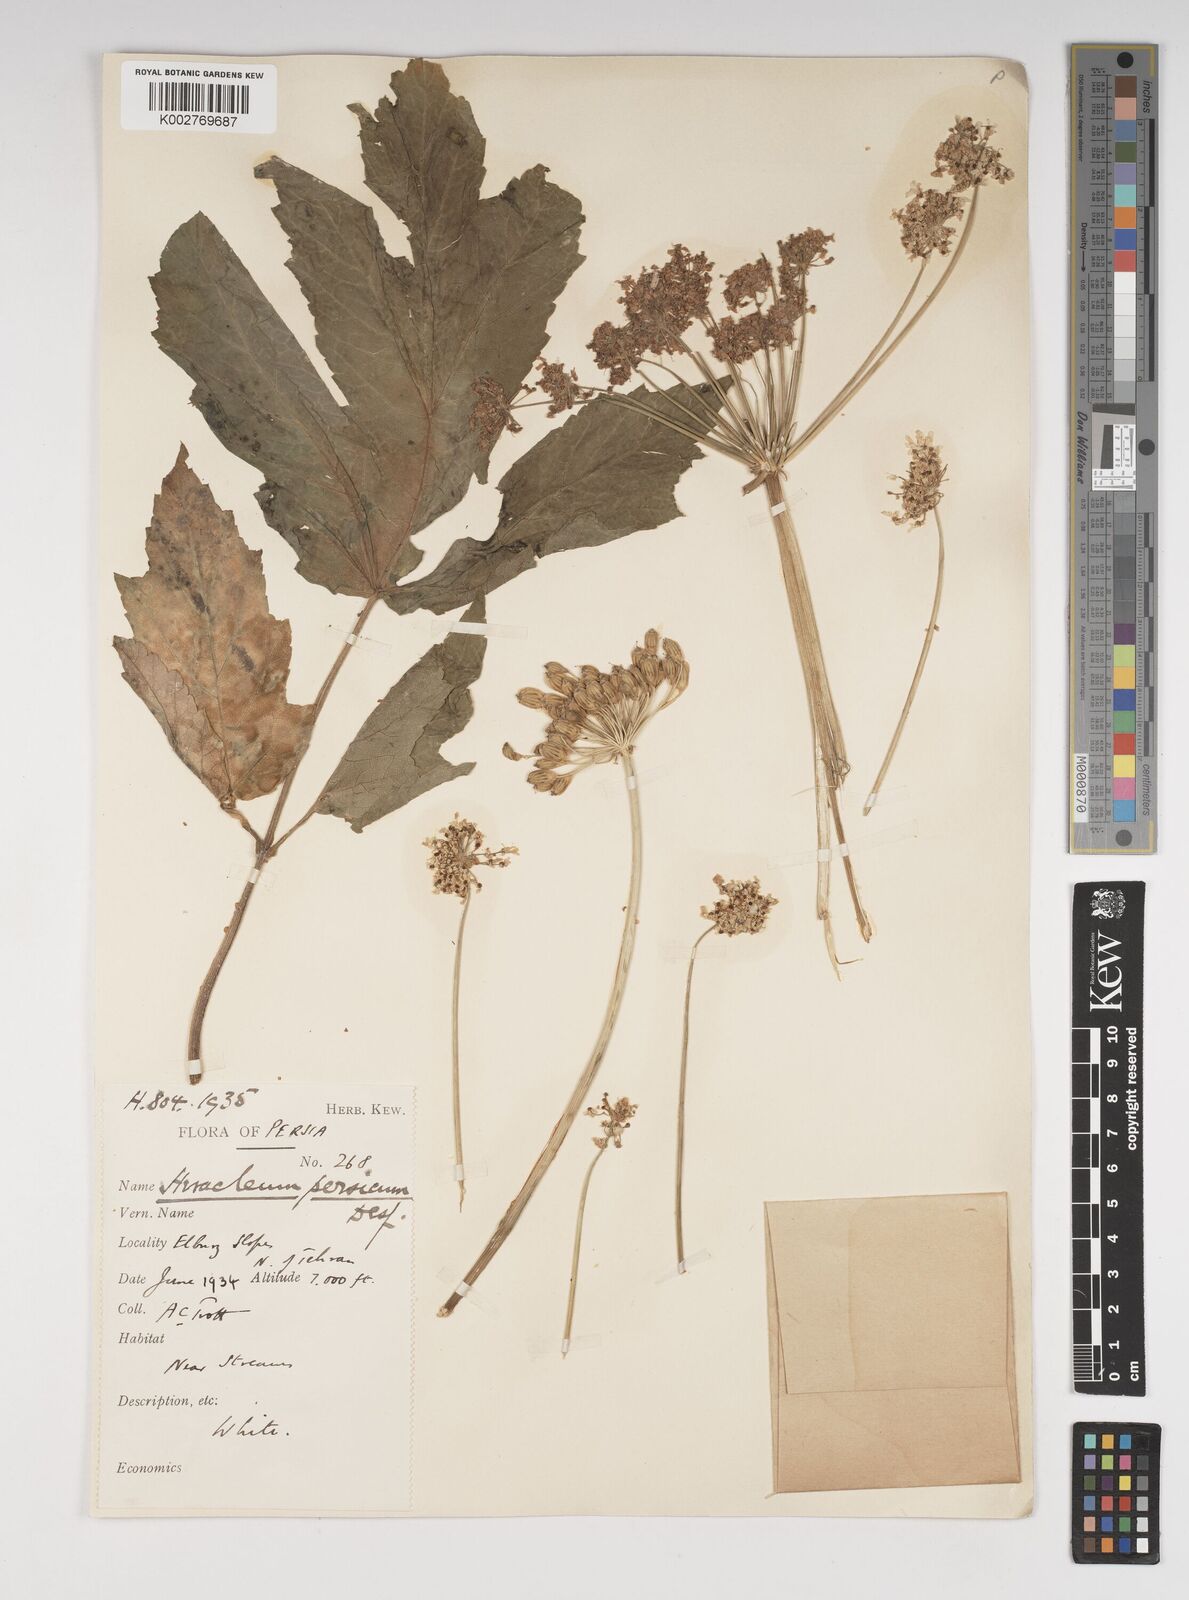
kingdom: Plantae
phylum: Tracheophyta
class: Magnoliopsida
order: Apiales
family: Apiaceae
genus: Heracleum
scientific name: Heracleum persicum
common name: Persian hogweed
